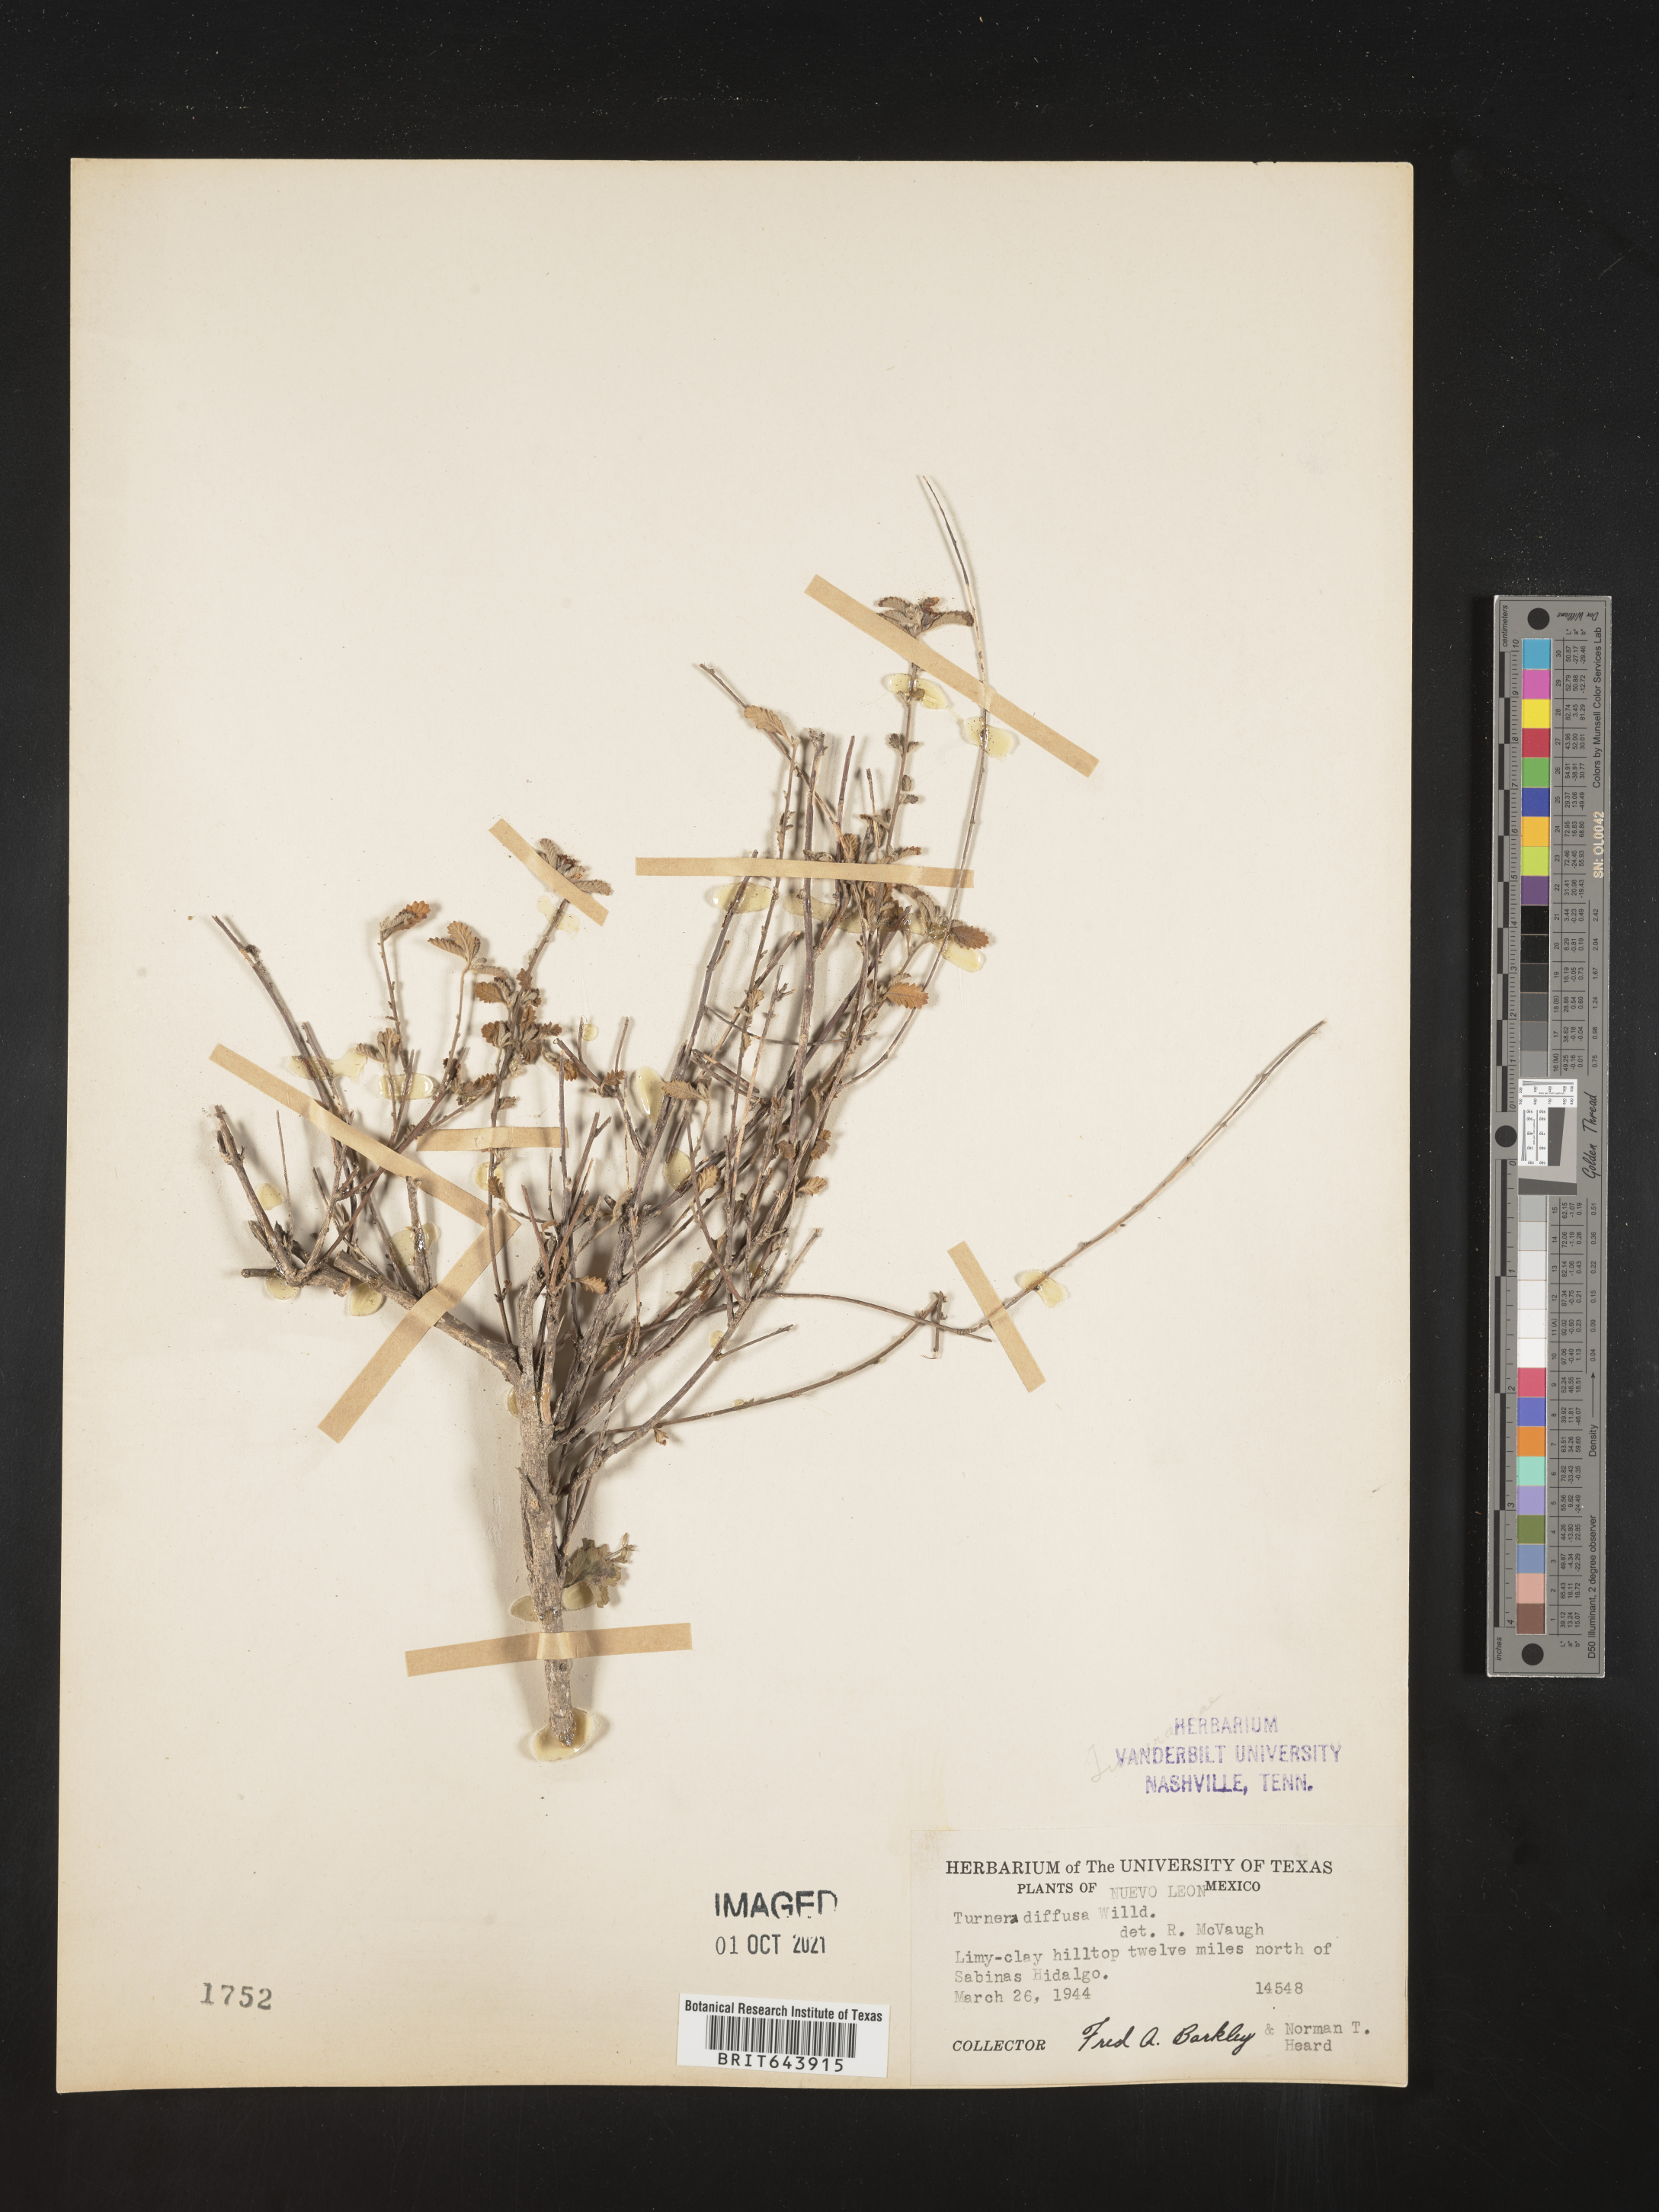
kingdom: Plantae
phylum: Tracheophyta
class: Magnoliopsida
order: Malpighiales
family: Turneraceae
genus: Turnera
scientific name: Turnera
